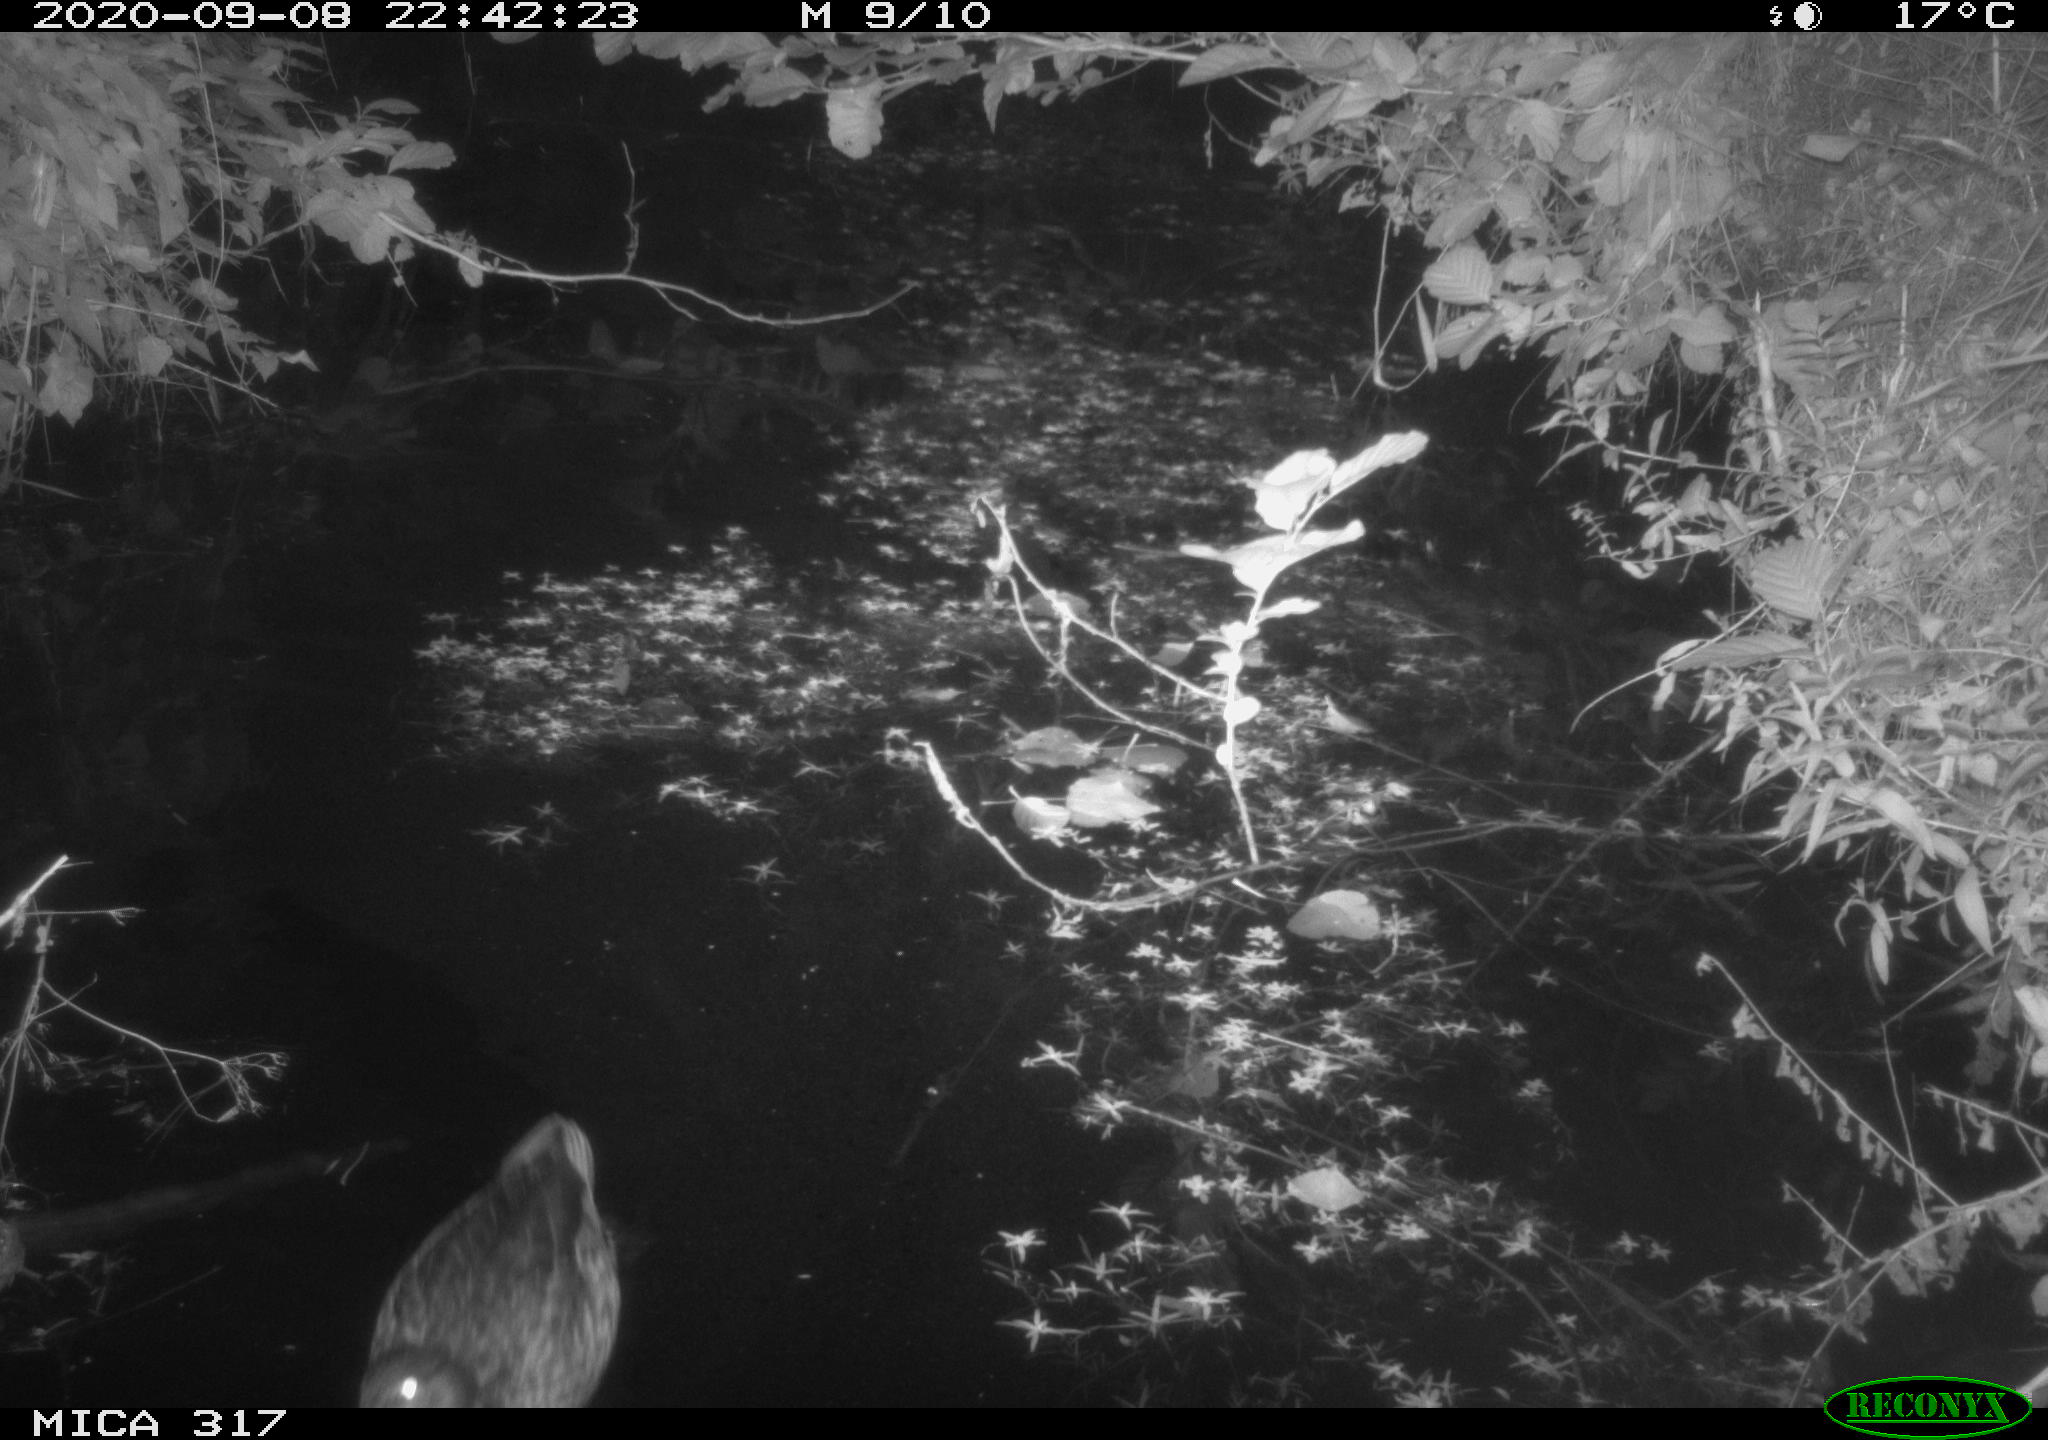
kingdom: Animalia
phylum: Chordata
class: Aves
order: Anseriformes
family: Anatidae
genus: Anas
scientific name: Anas platyrhynchos
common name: Mallard
